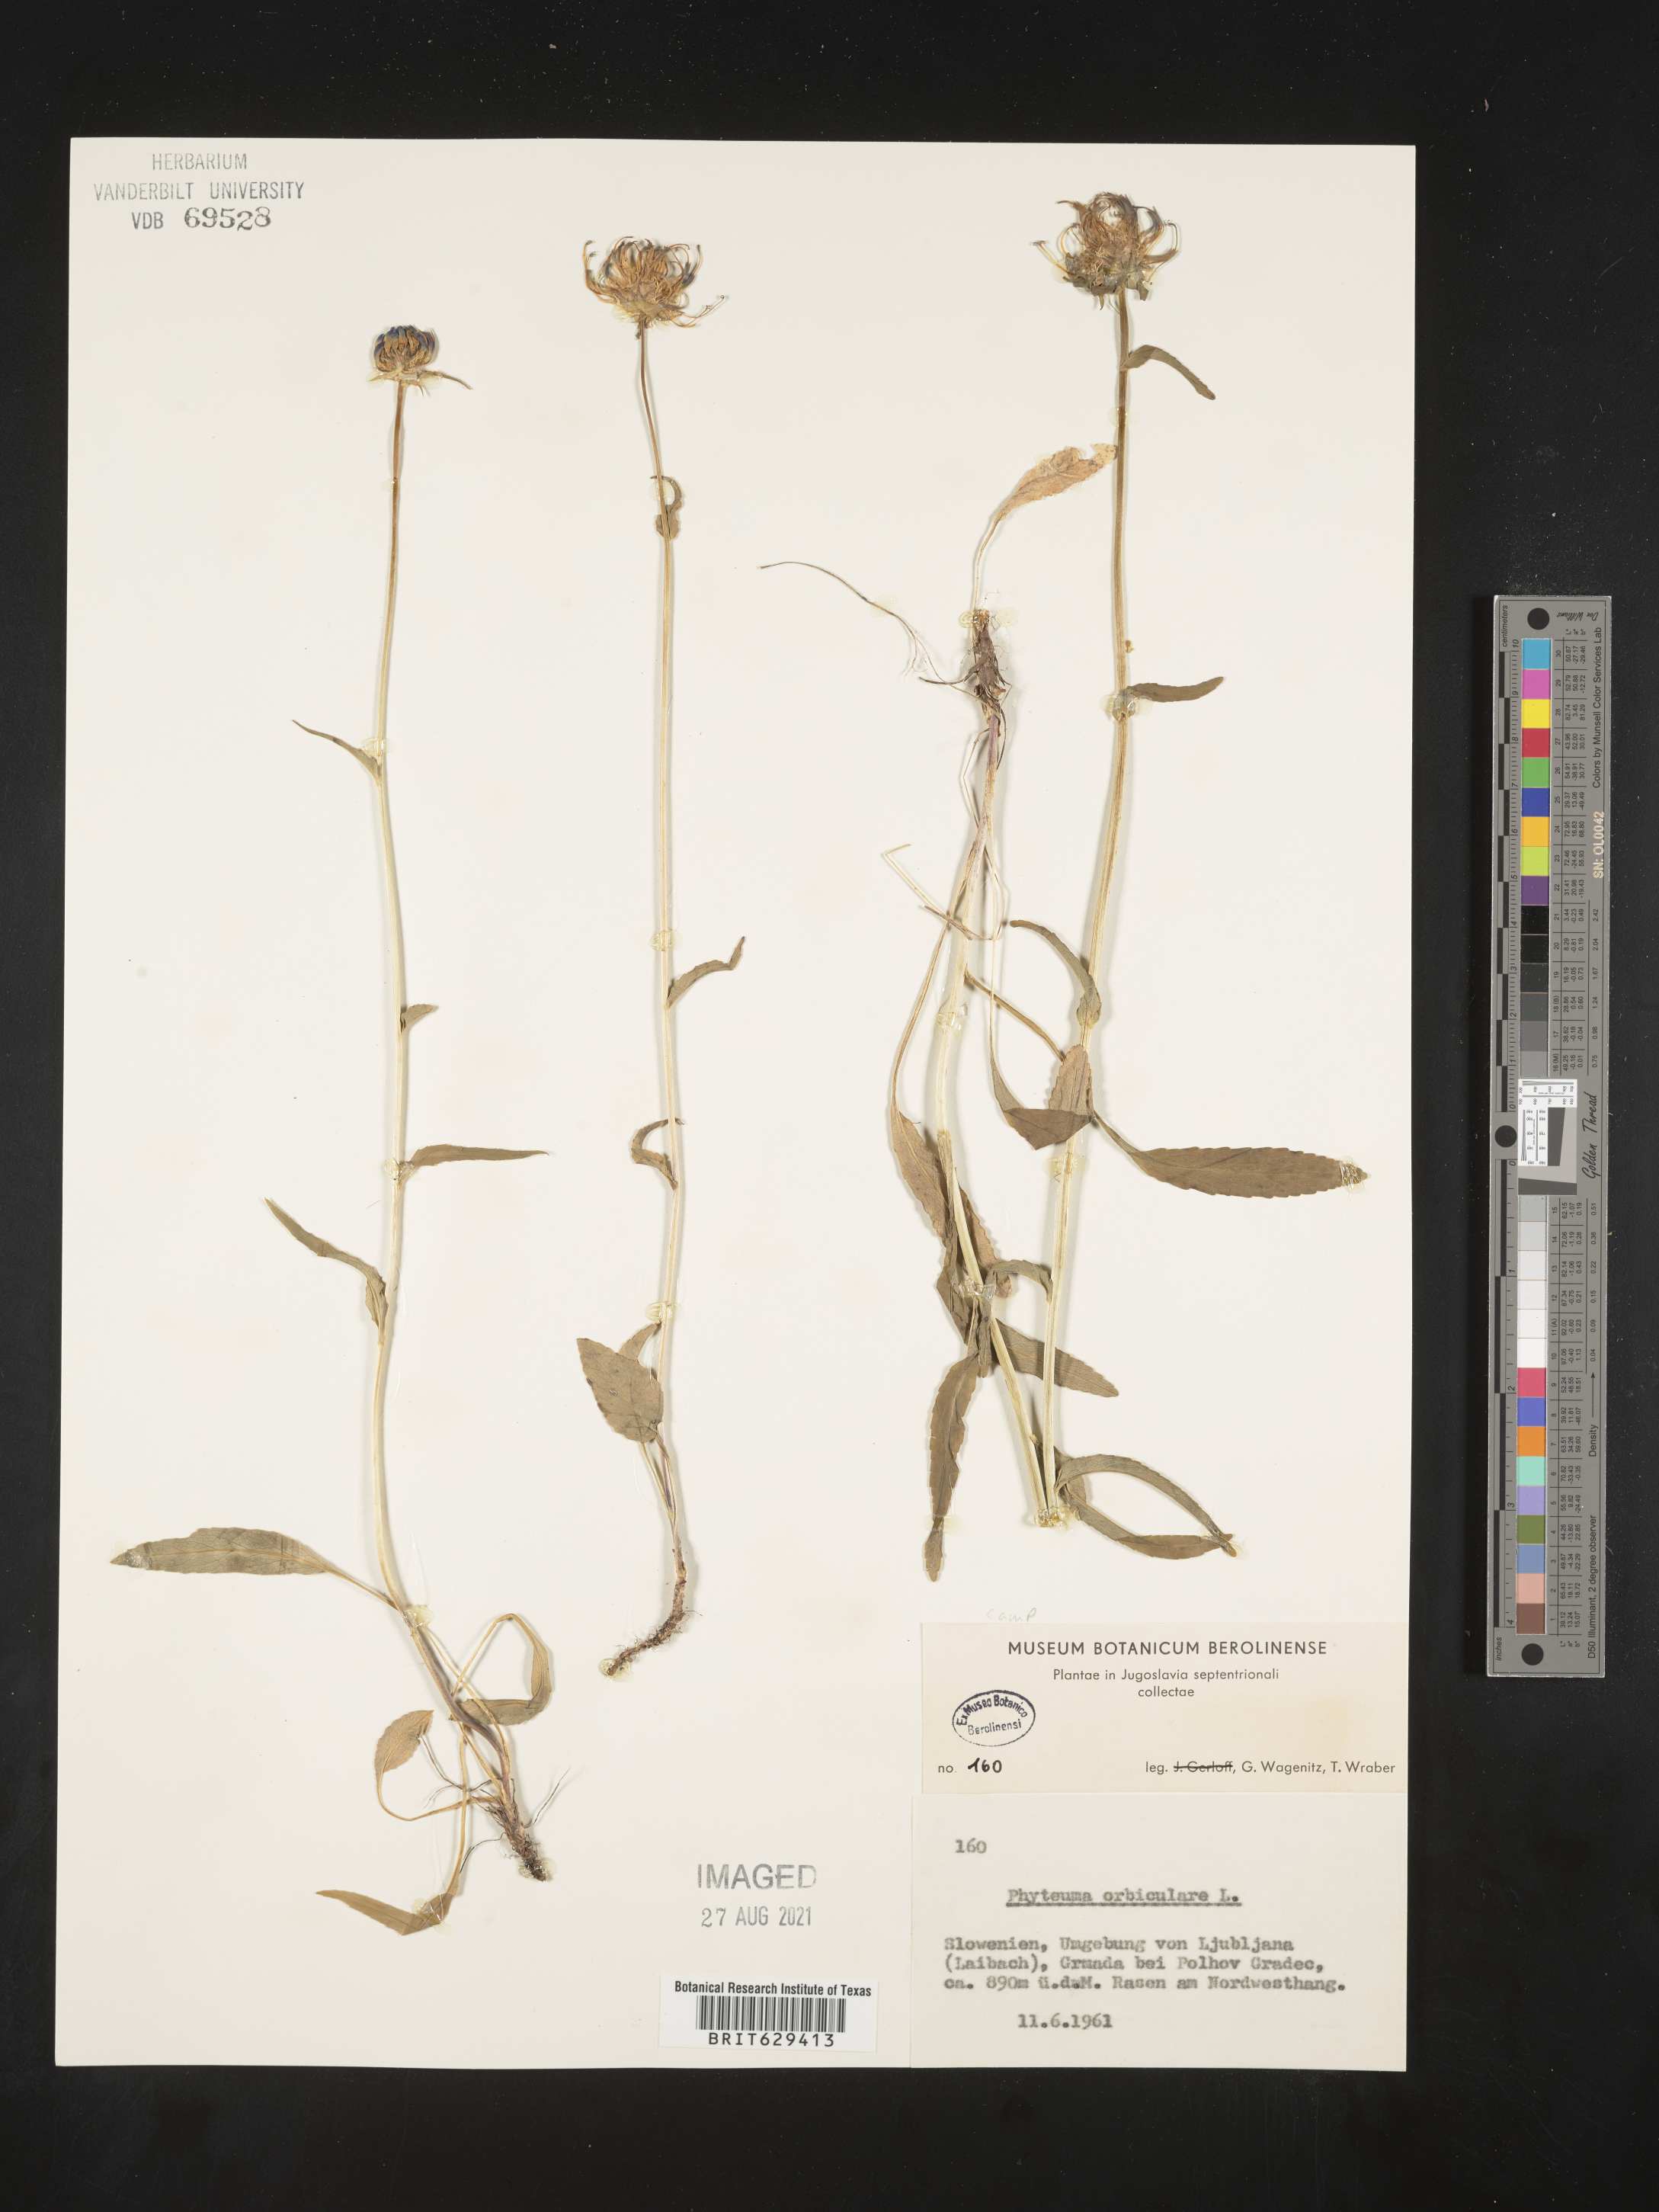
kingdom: Plantae
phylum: Tracheophyta
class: Magnoliopsida
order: Asterales
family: Campanulaceae
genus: Phyteuma
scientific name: Phyteuma orbiculare
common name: Round-headed rampion
